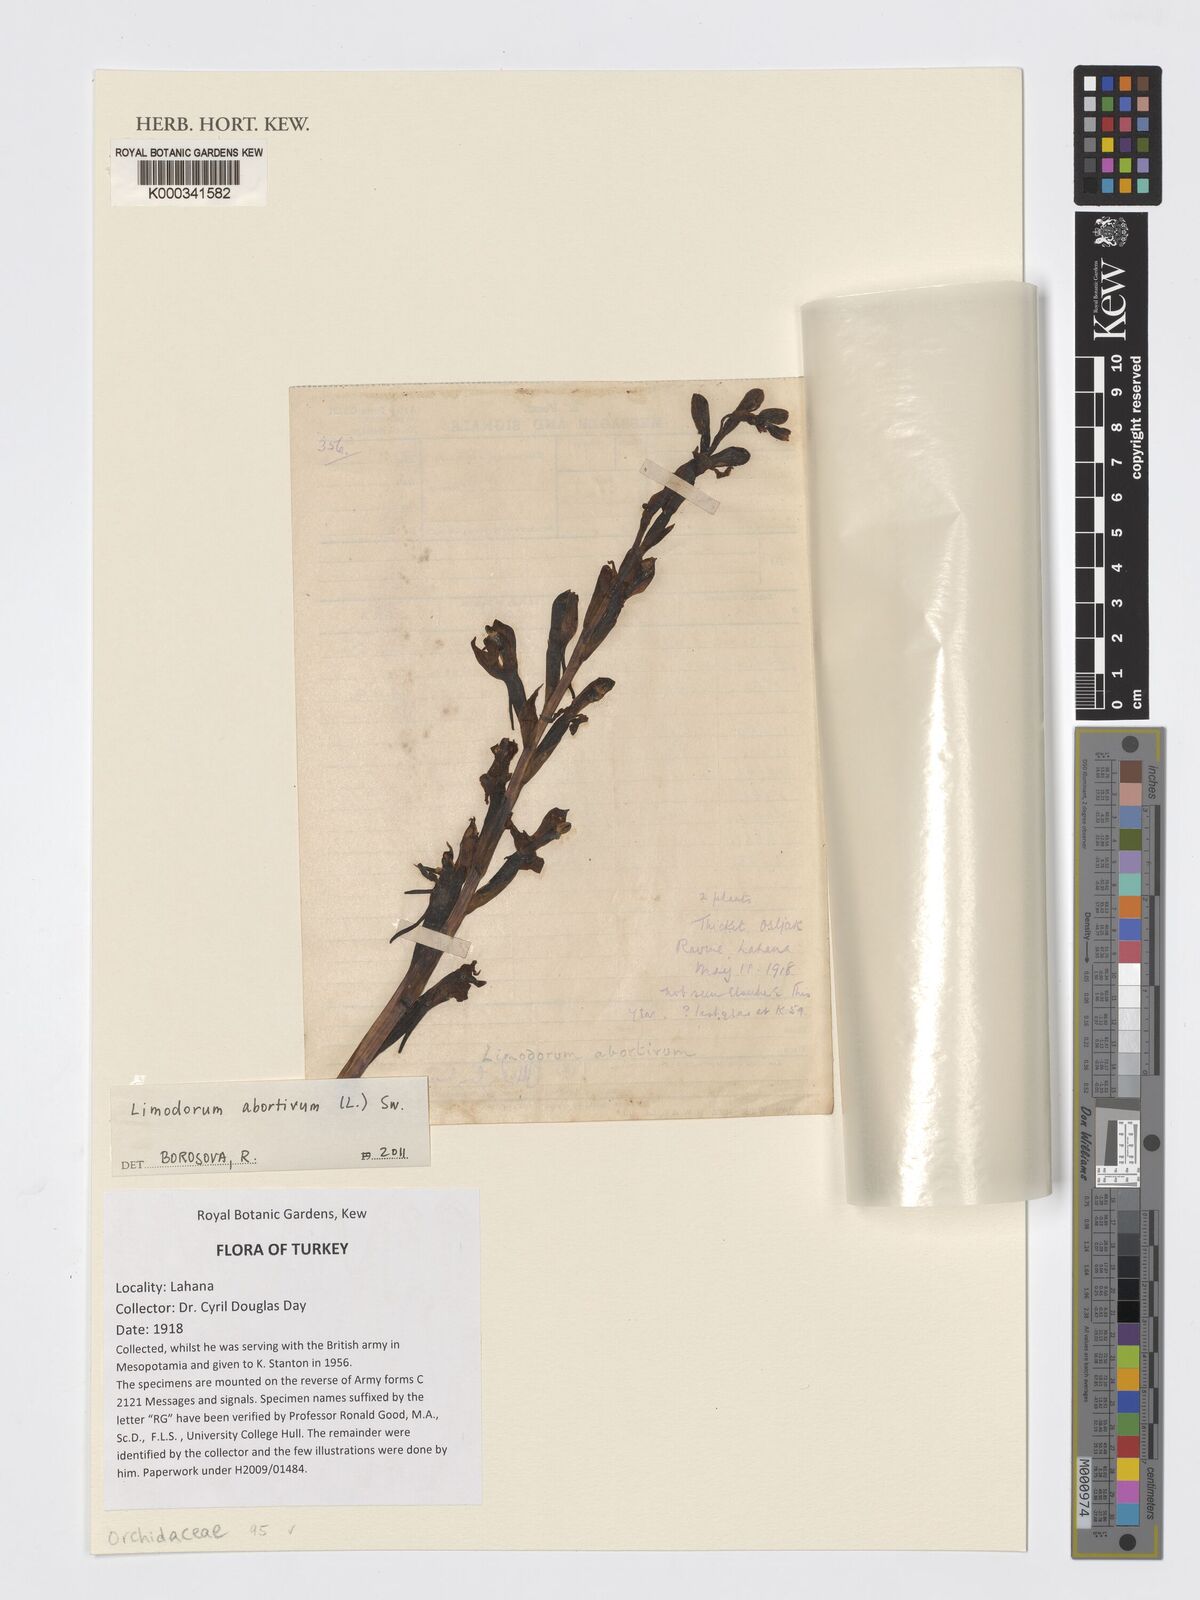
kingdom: Plantae
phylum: Tracheophyta
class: Liliopsida
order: Asparagales
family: Orchidaceae
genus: Limodorum
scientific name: Limodorum abortivum
